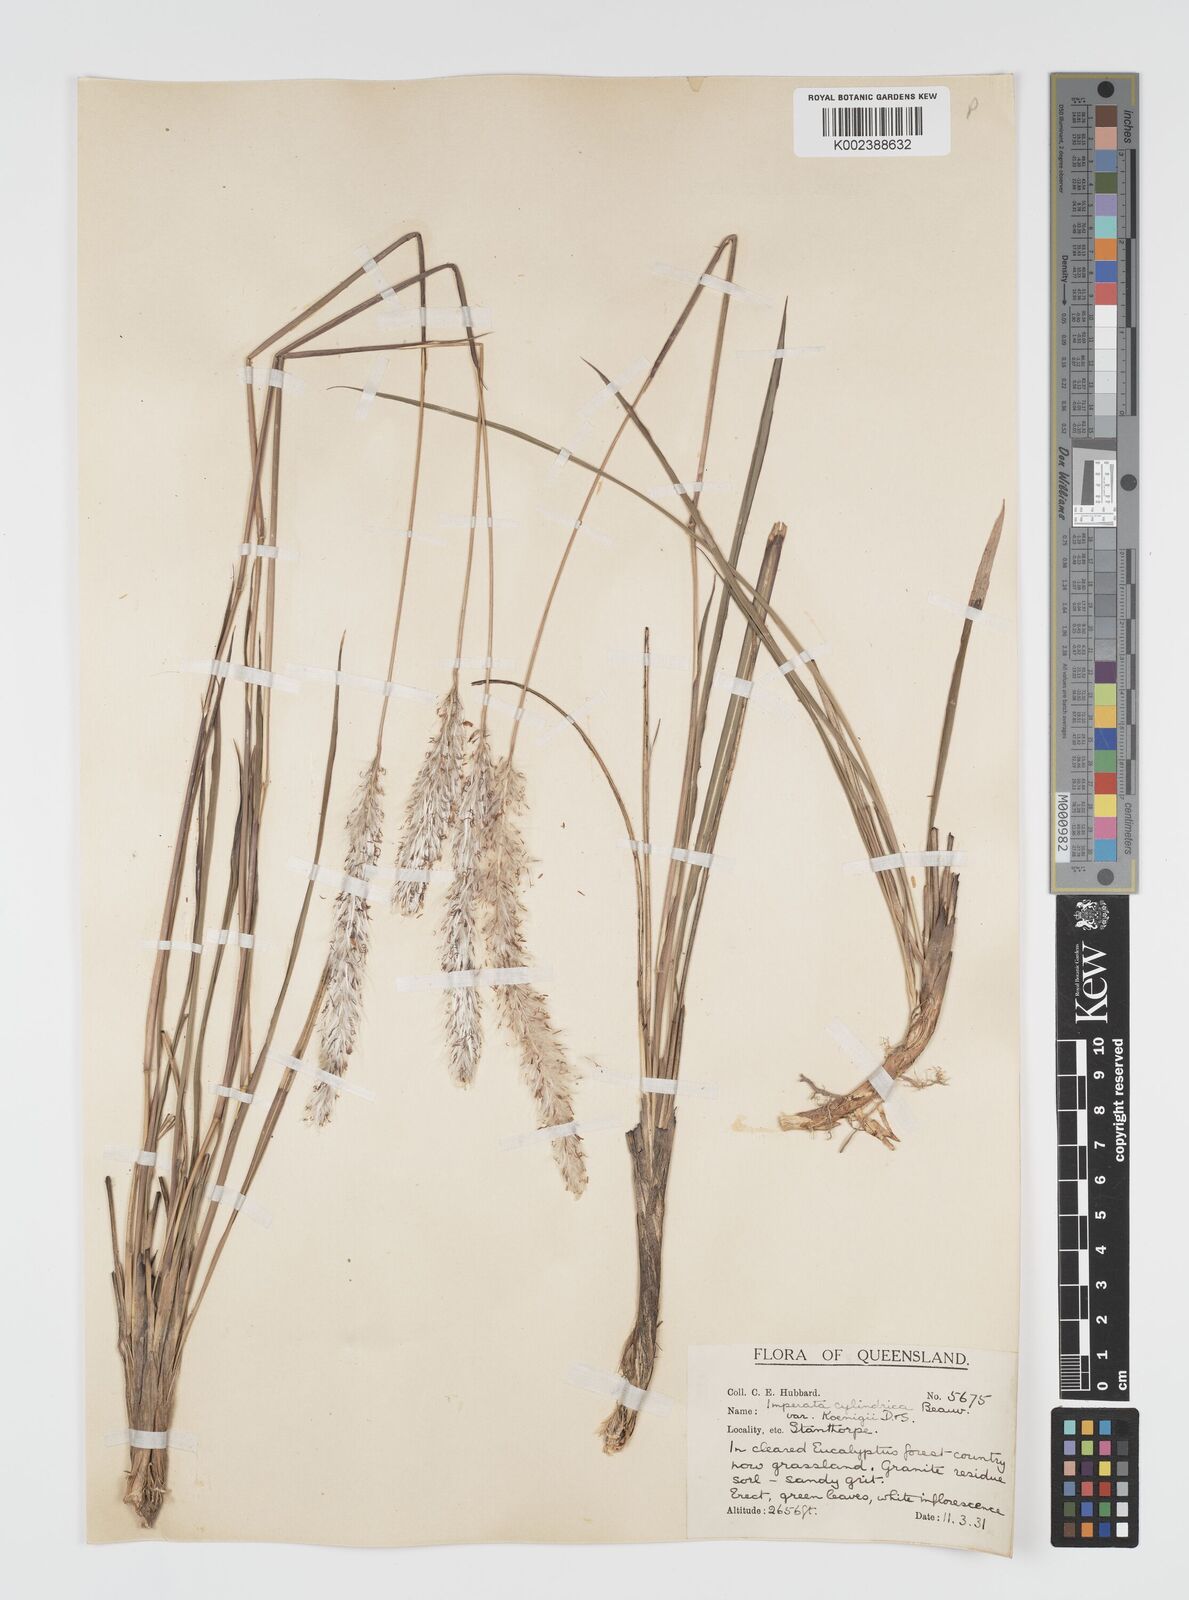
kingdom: Plantae
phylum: Tracheophyta
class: Liliopsida
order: Poales
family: Poaceae
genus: Imperata
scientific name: Imperata cylindrica
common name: Cogongrass
